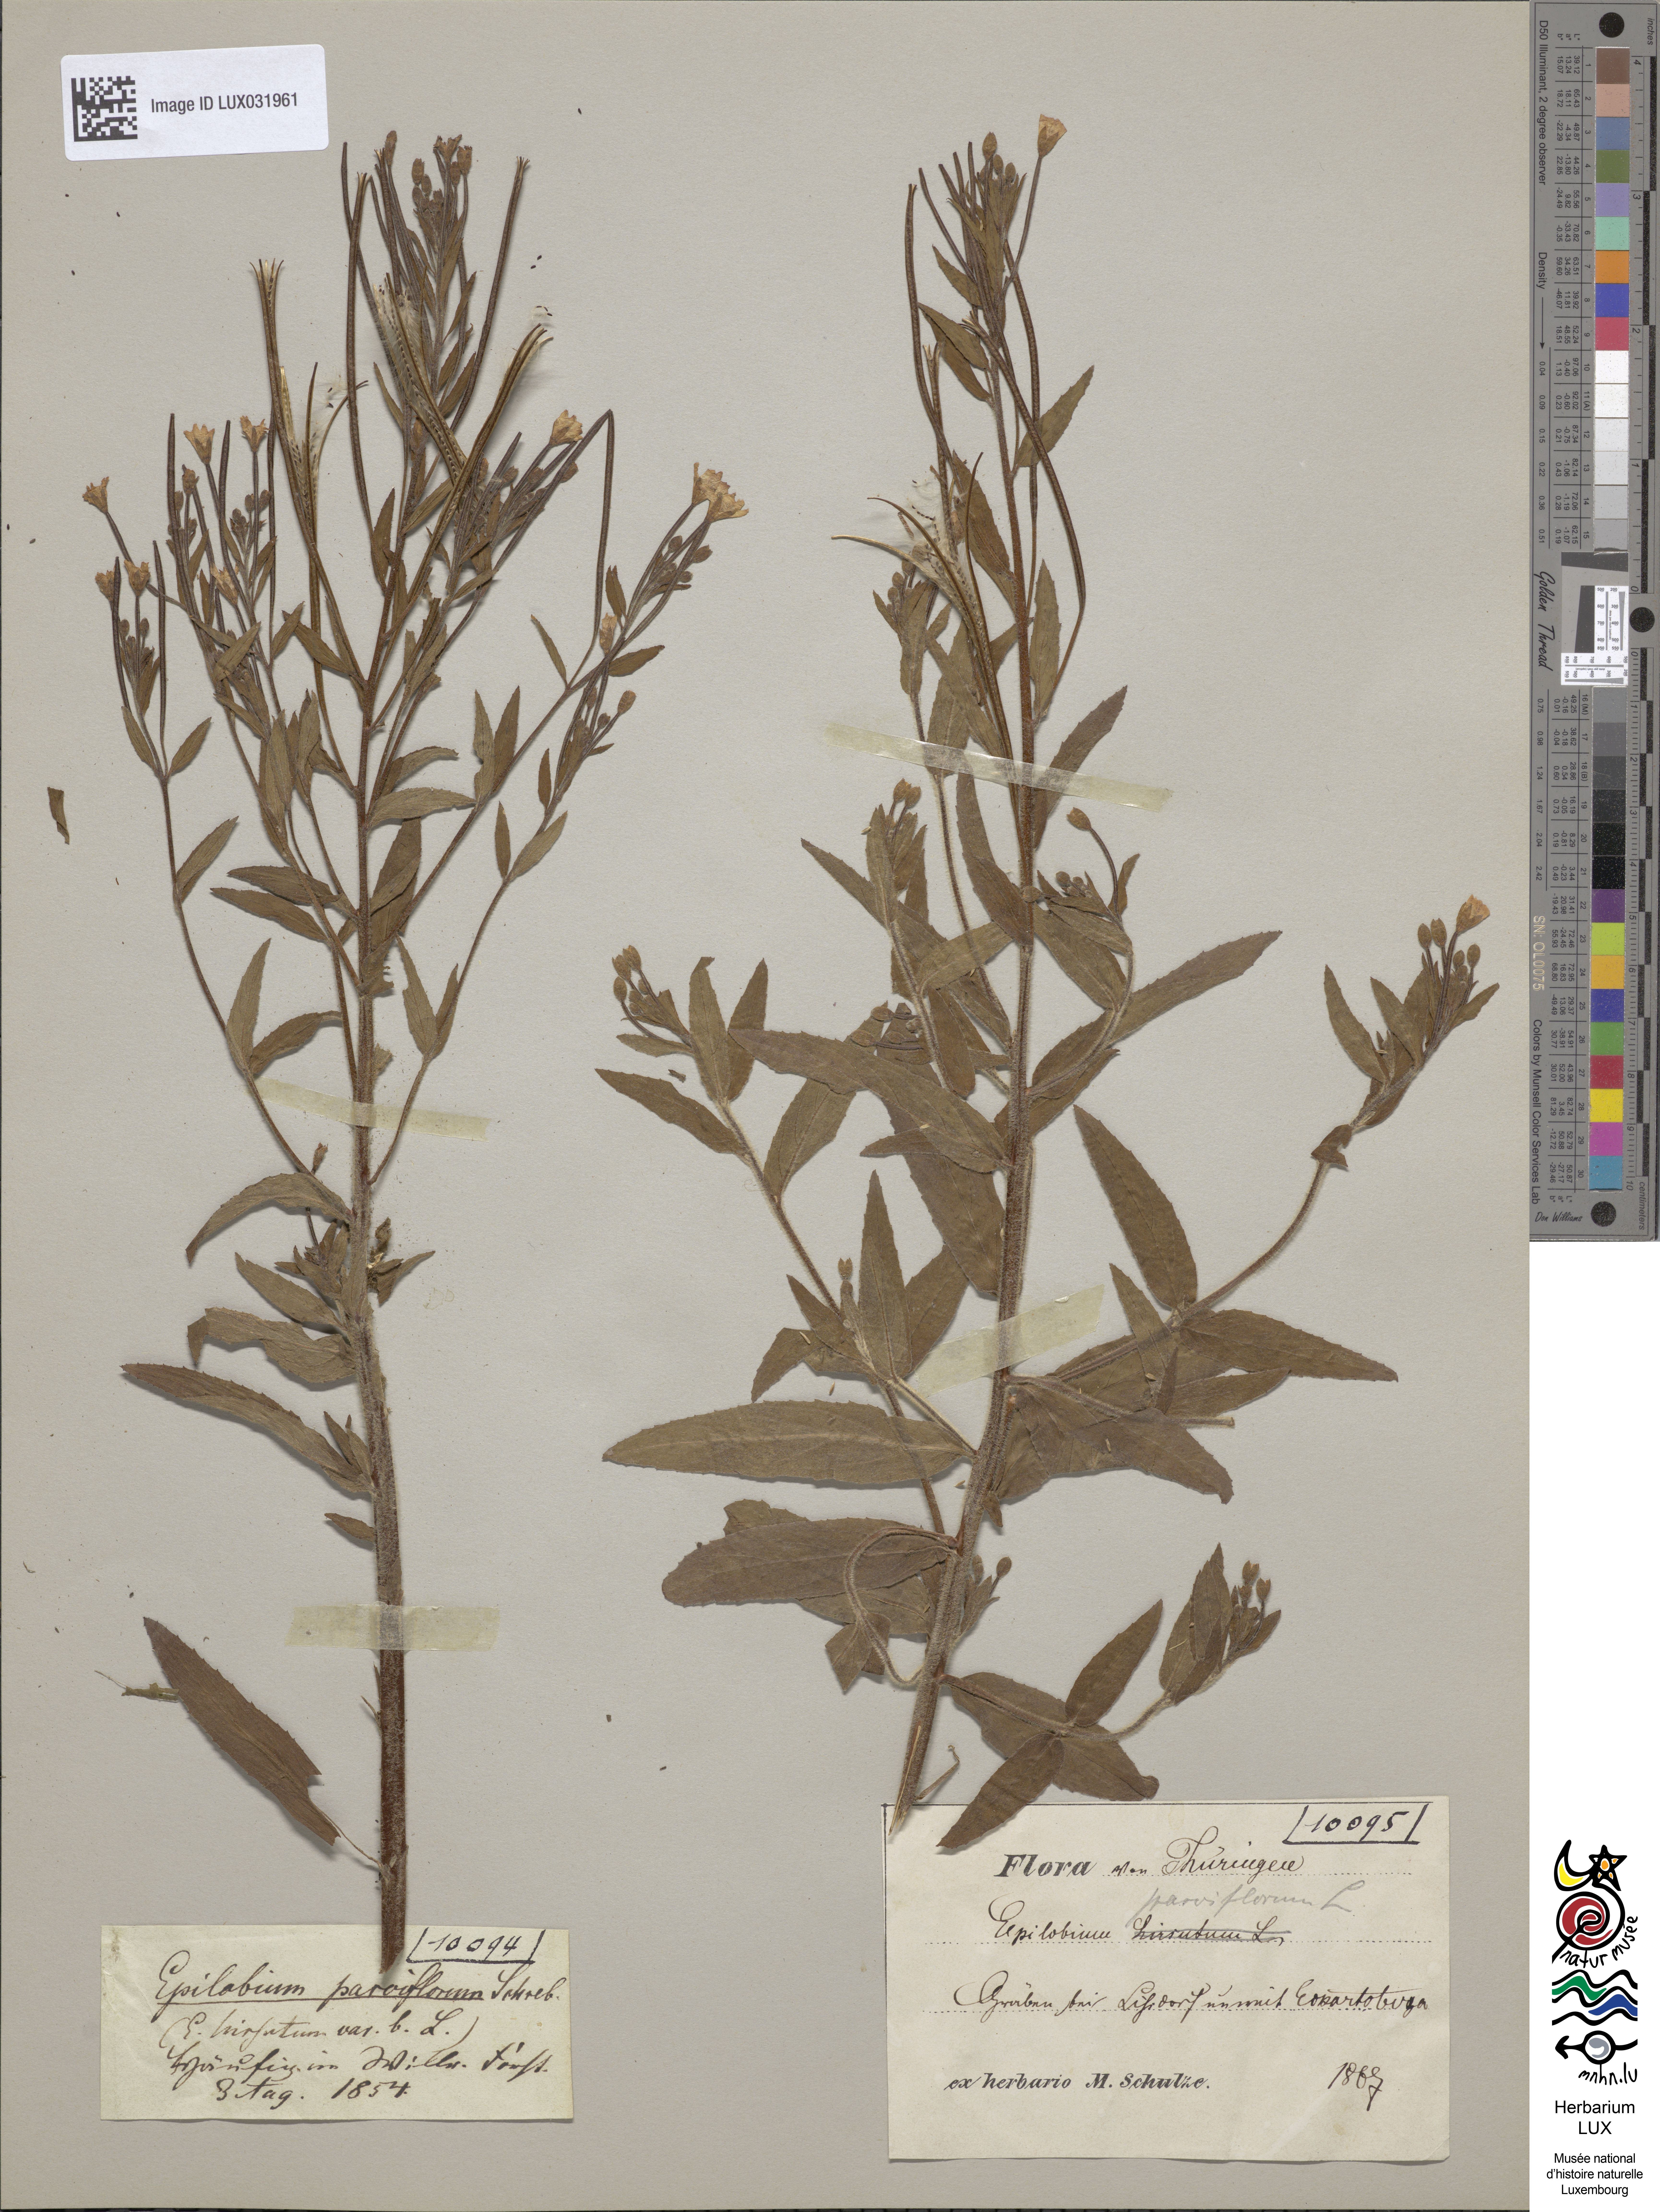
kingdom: Plantae
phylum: Tracheophyta
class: Magnoliopsida
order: Myrtales
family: Onagraceae
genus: Epilobium
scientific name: Epilobium parviflorum
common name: Hoary willowherb
